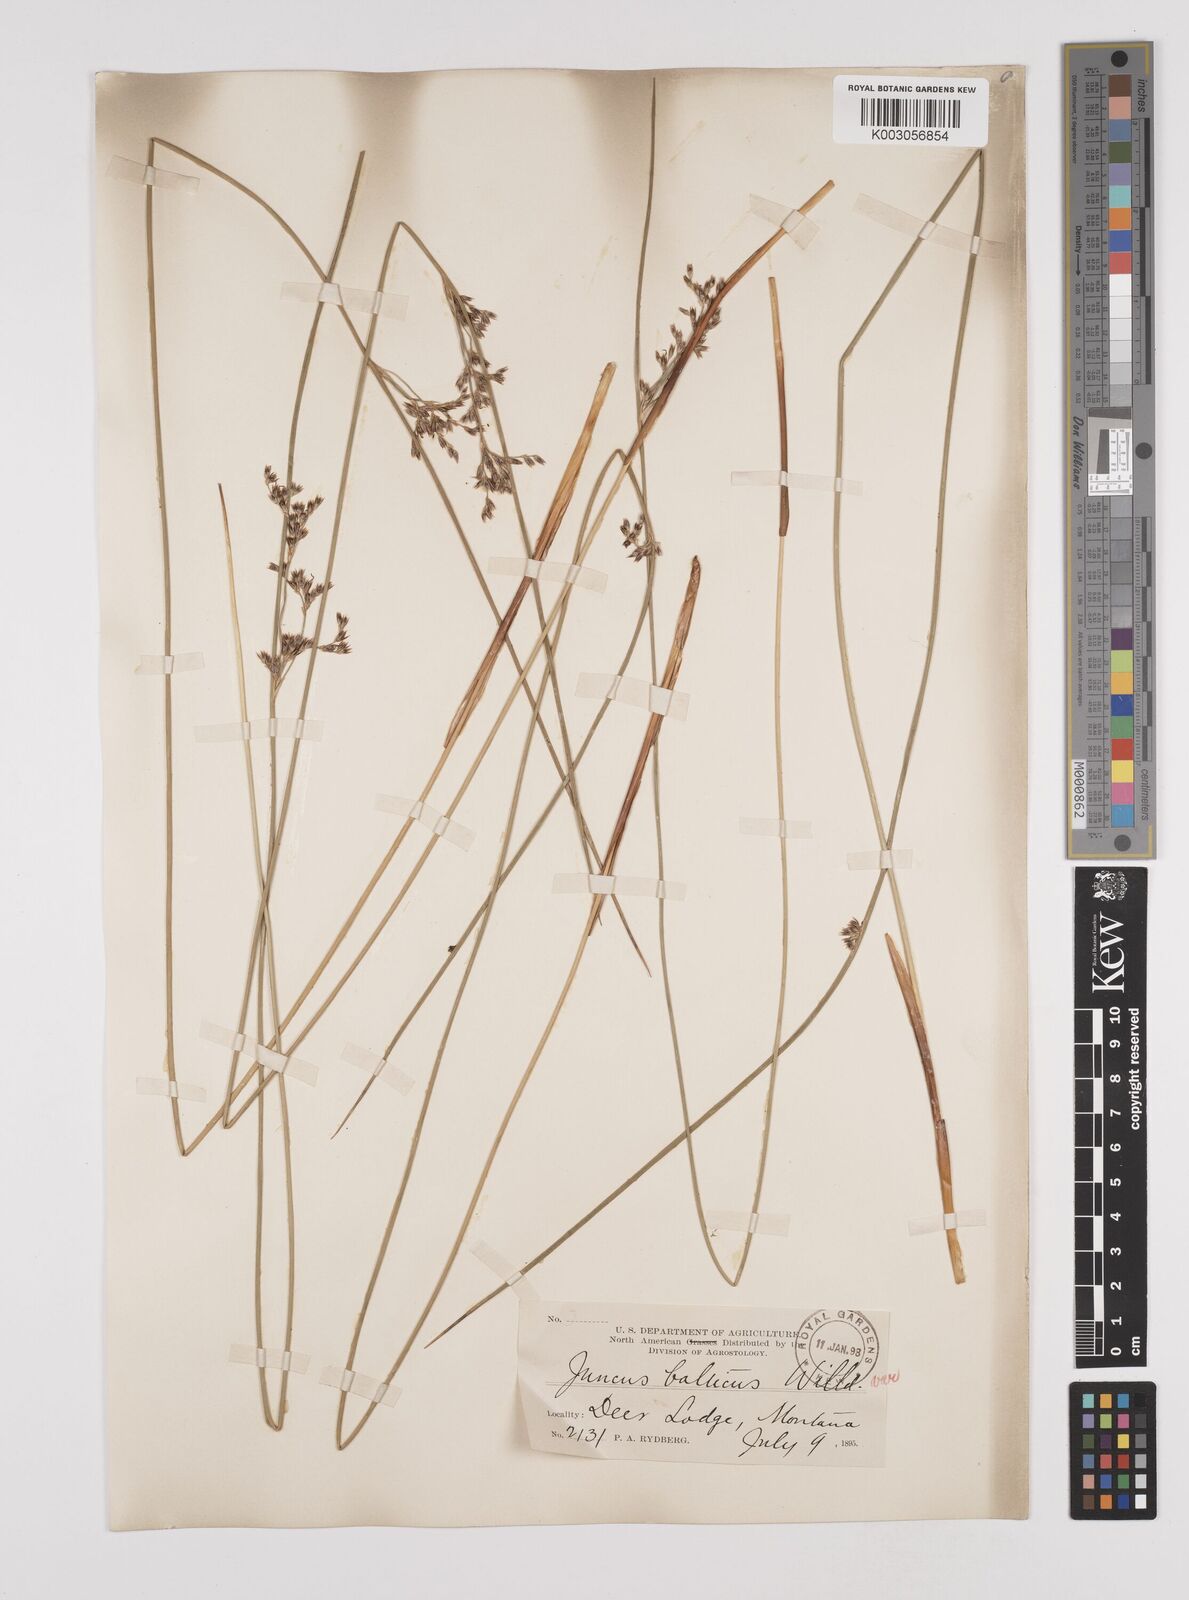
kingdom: Plantae
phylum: Tracheophyta
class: Liliopsida
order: Poales
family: Juncaceae
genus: Juncus
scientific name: Juncus balticus
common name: Baltic rush
